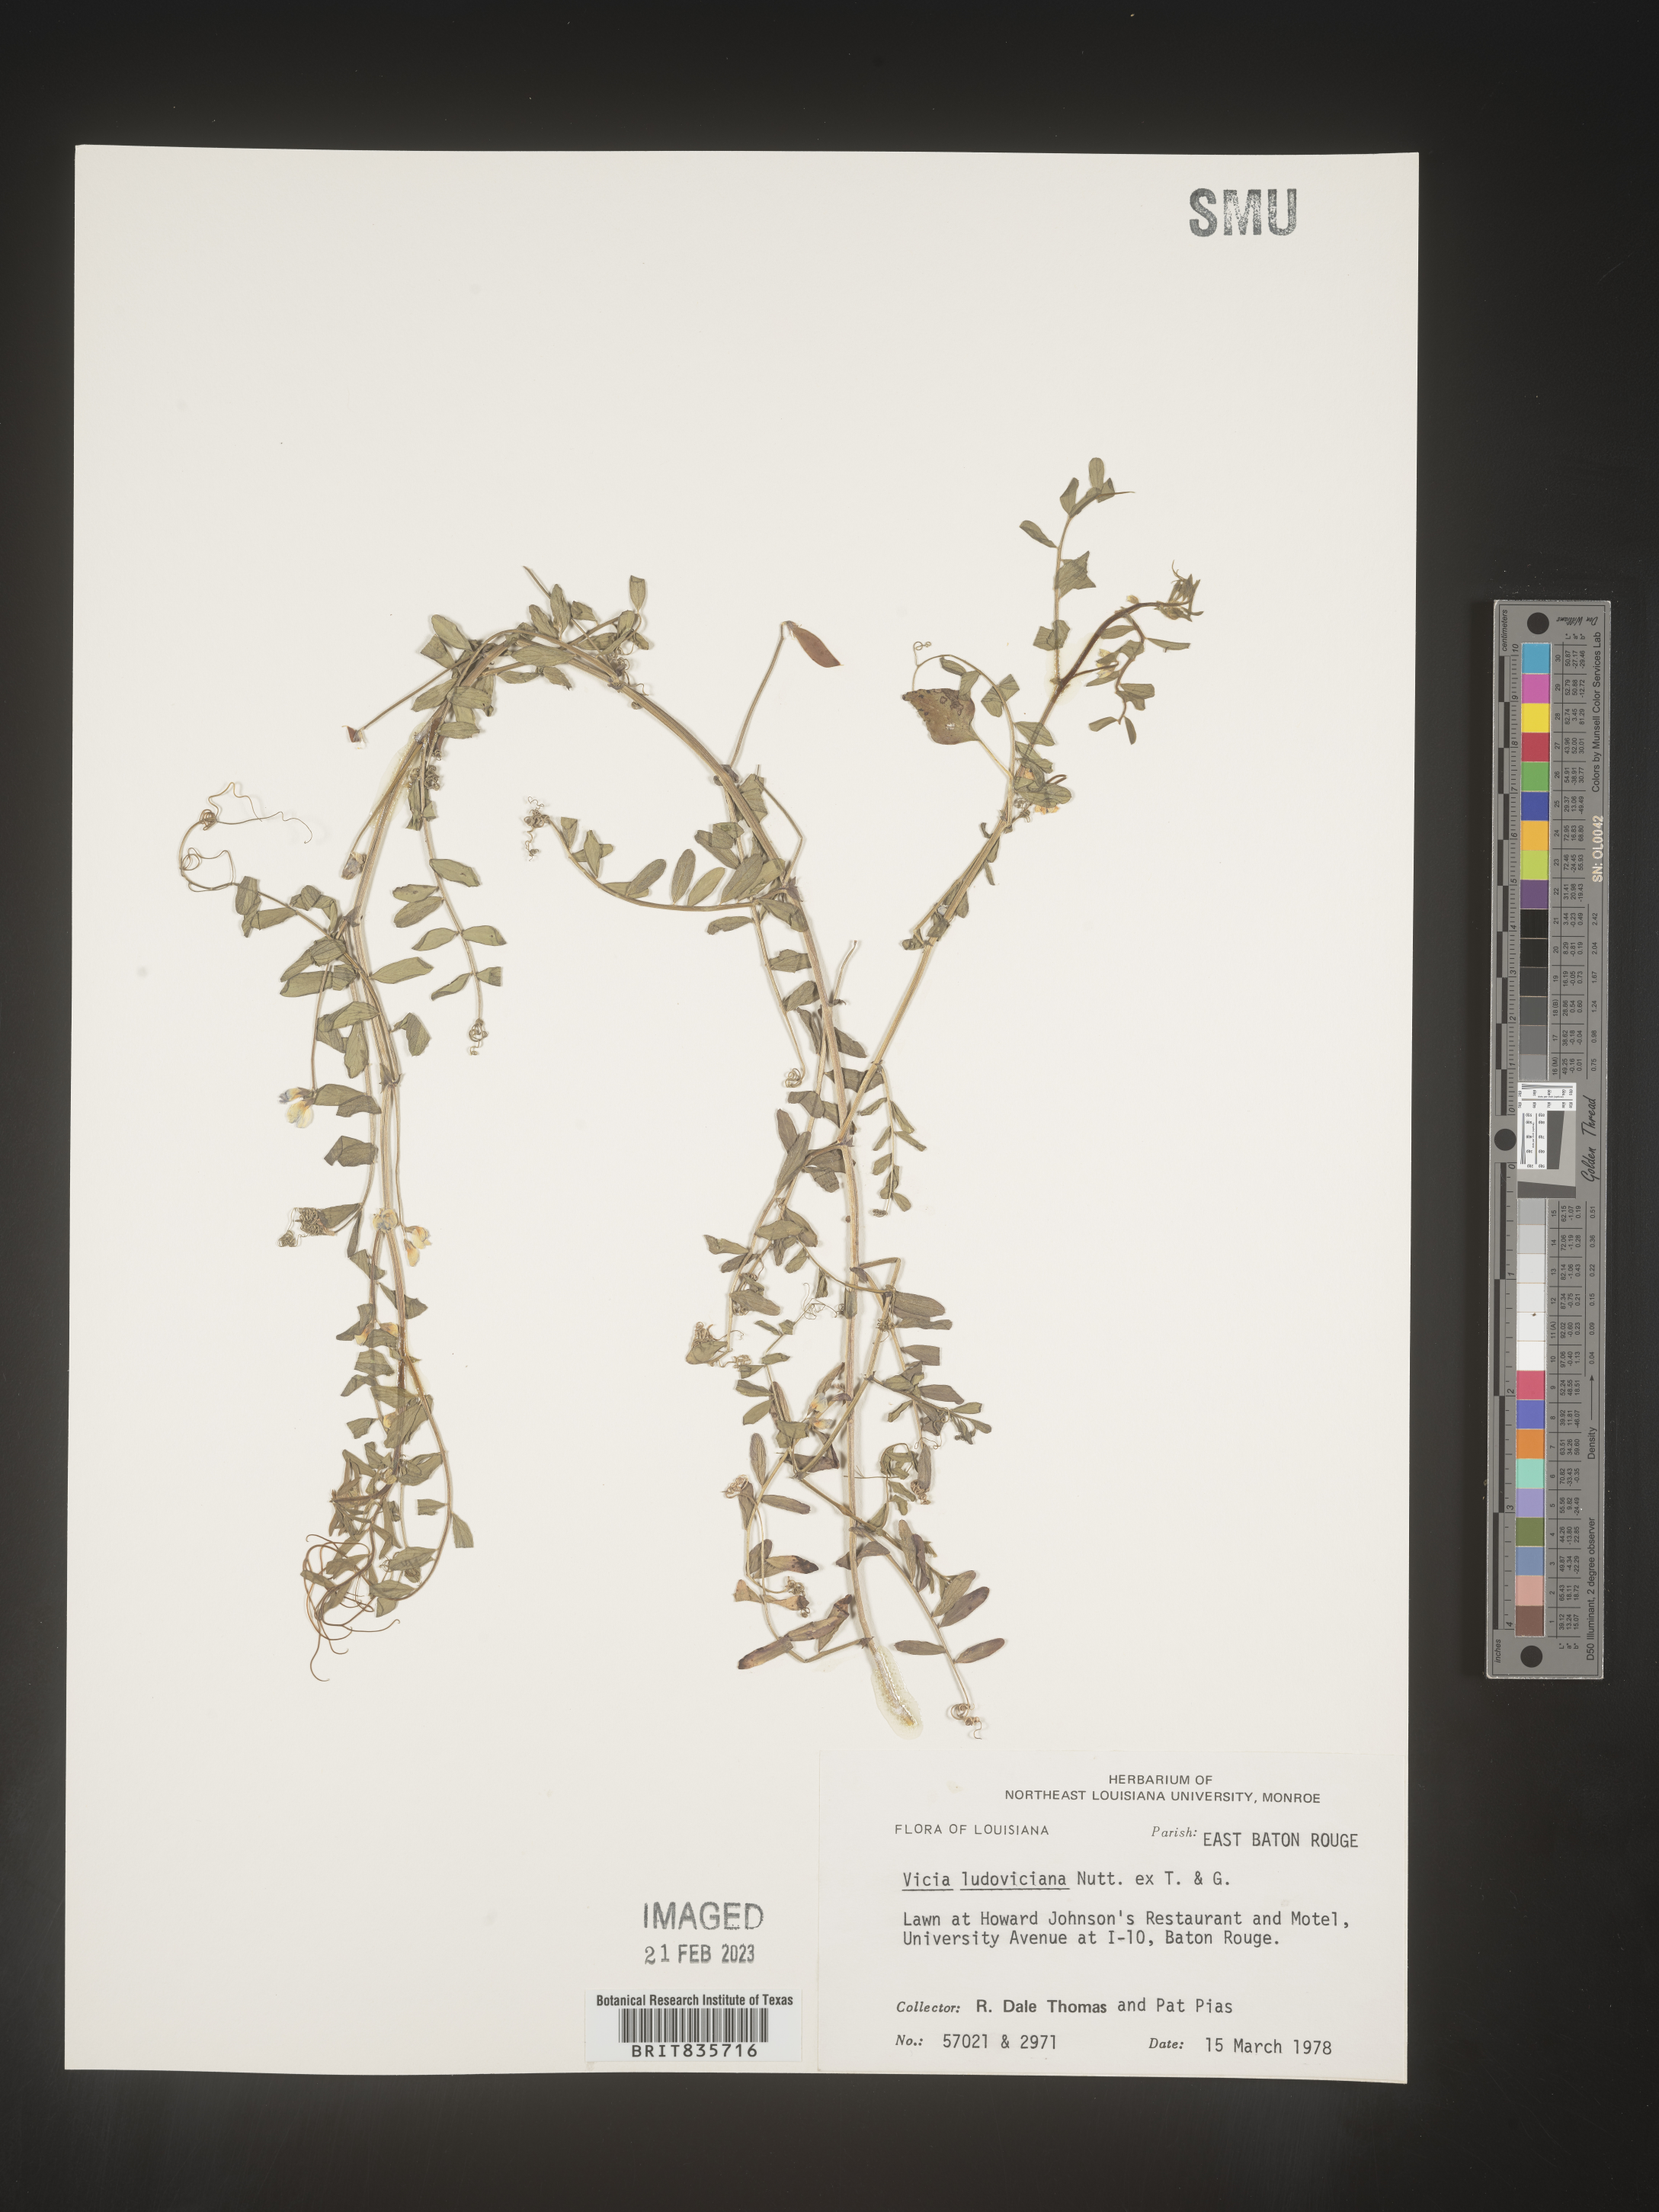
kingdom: Plantae
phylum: Tracheophyta
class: Magnoliopsida
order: Fabales
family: Fabaceae
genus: Vicia
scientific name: Vicia ludoviciana
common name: Louisiana vetch
